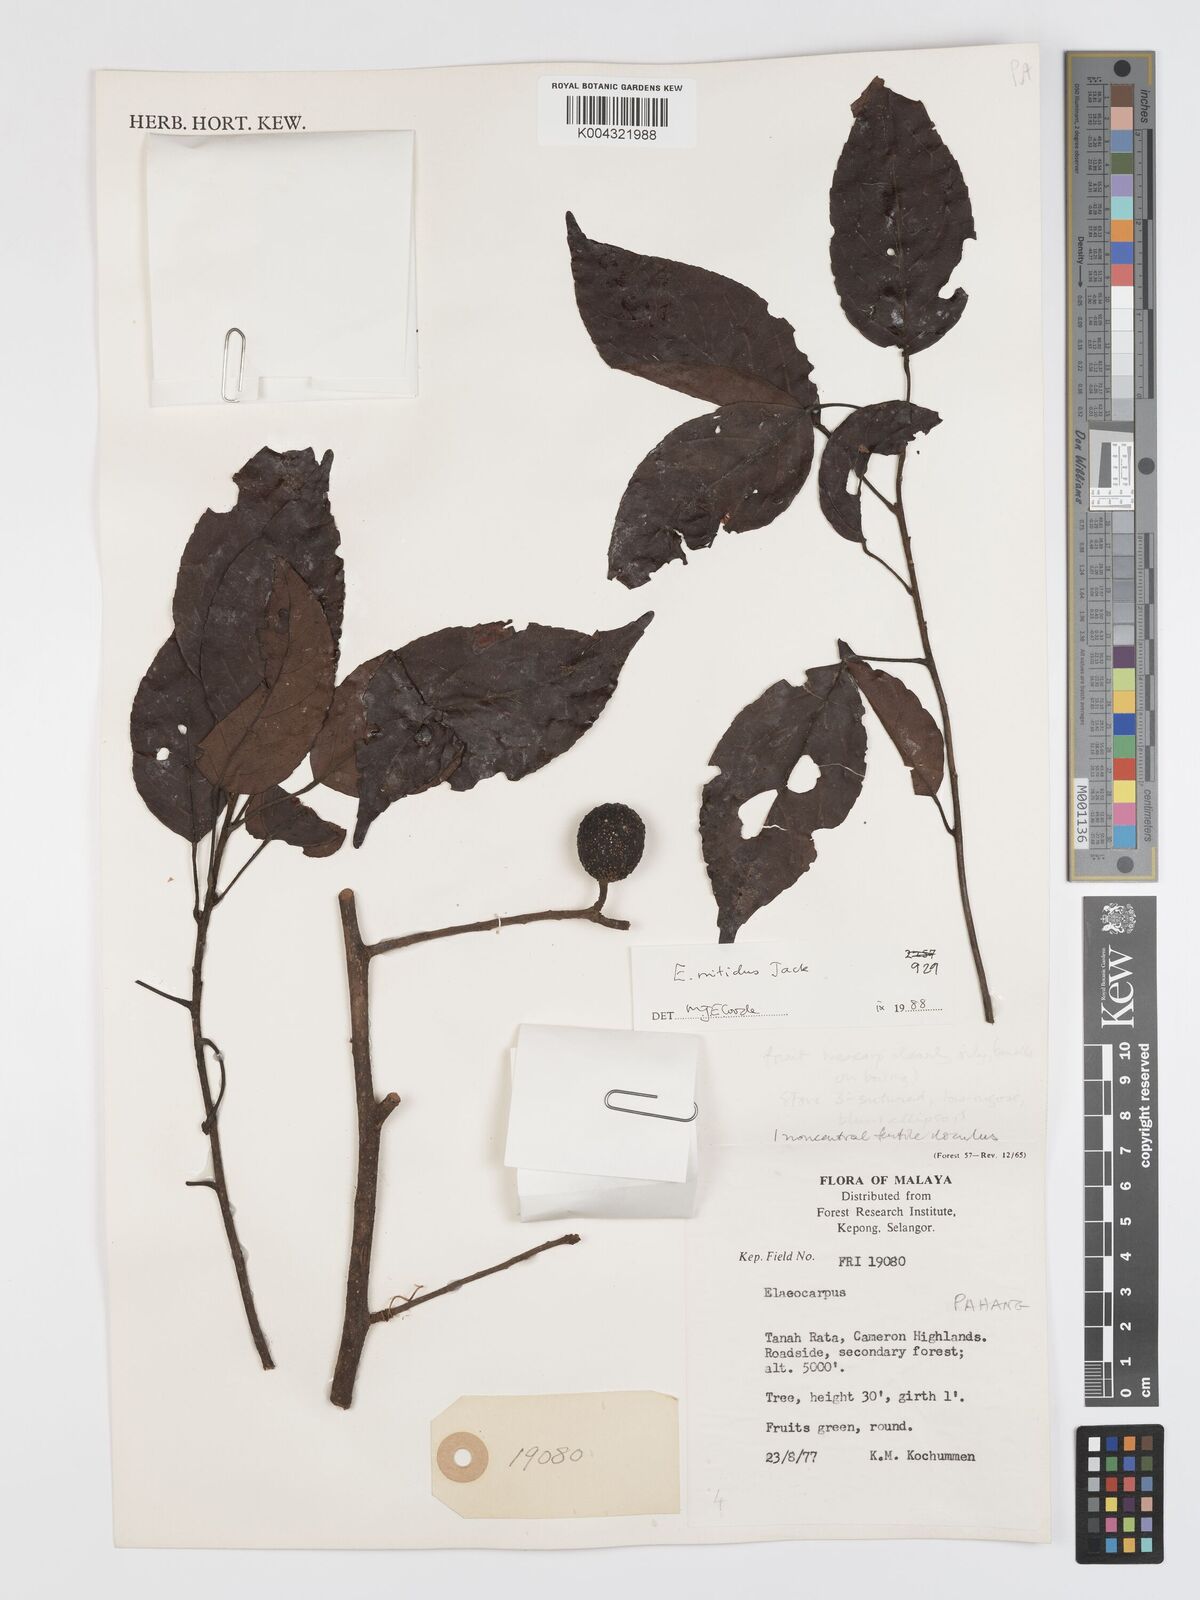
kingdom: Plantae
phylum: Tracheophyta
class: Magnoliopsida
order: Oxalidales
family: Elaeocarpaceae
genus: Elaeocarpus
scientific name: Elaeocarpus nitidus
